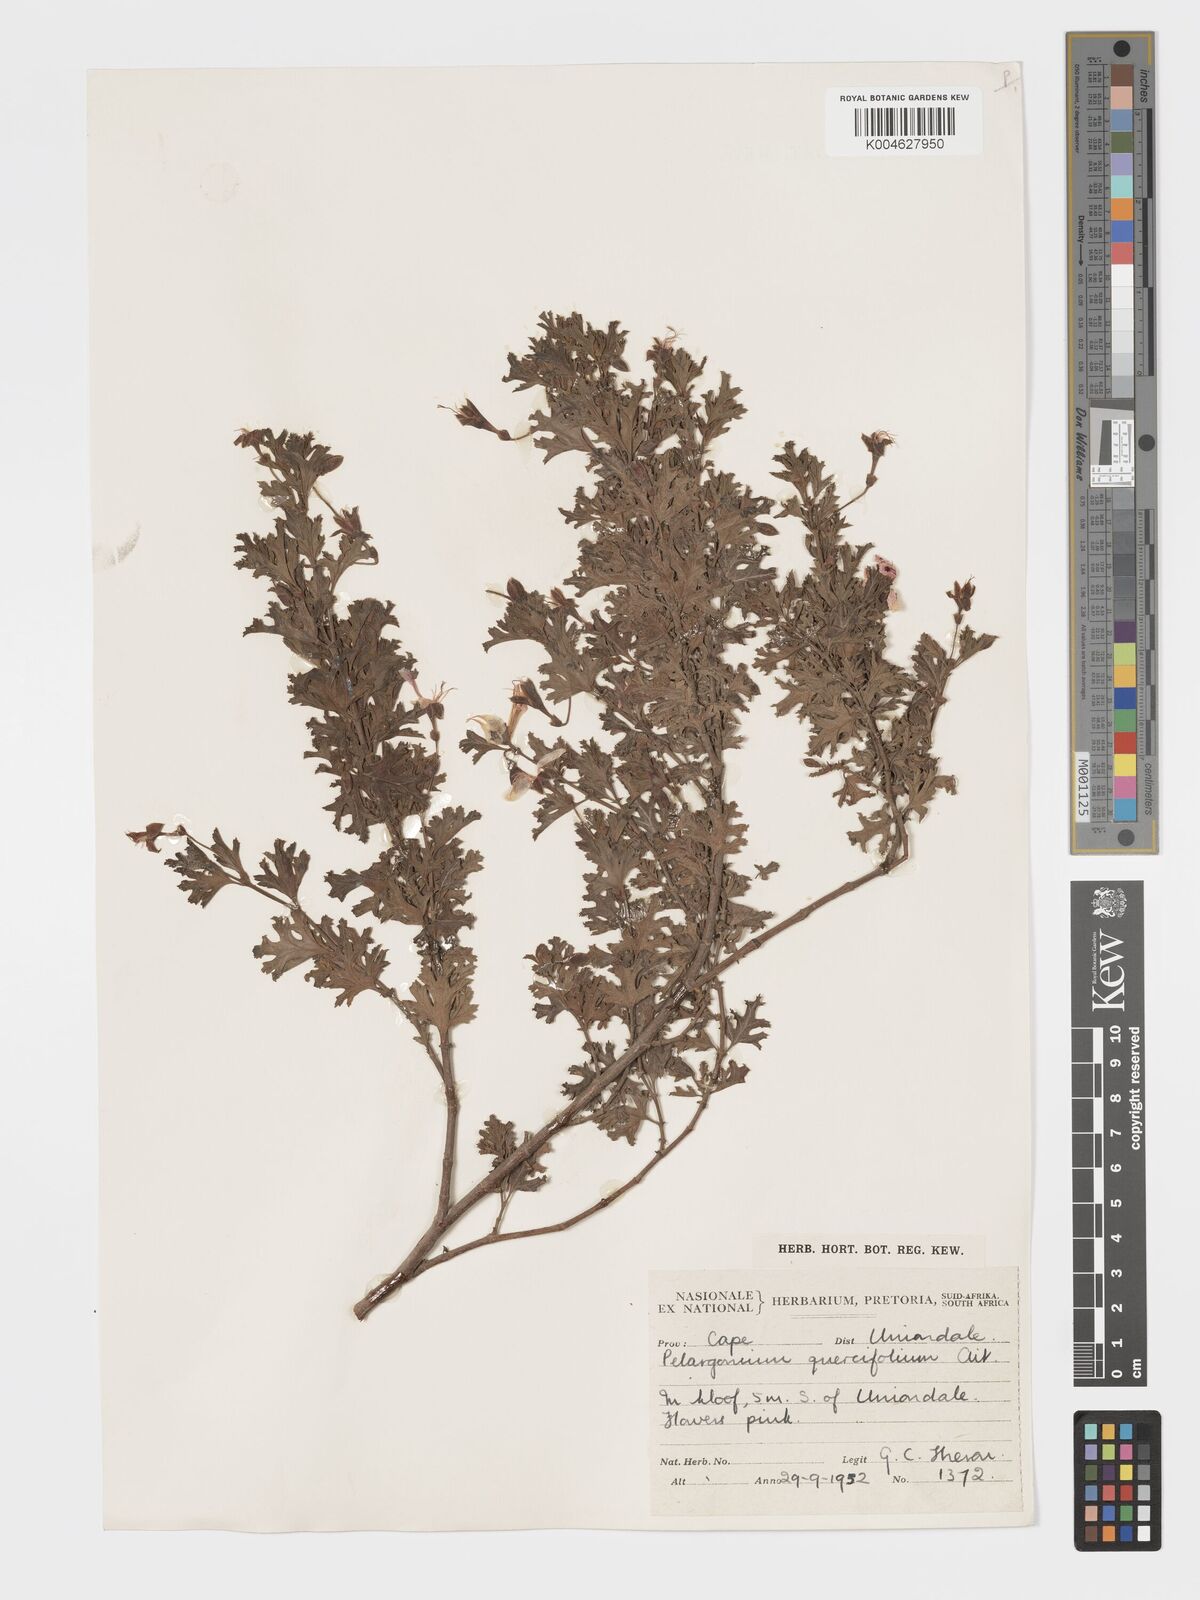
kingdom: Plantae
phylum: Tracheophyta
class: Magnoliopsida
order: Geraniales
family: Geraniaceae
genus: Pelargonium
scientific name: Pelargonium quercifolium
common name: Oakleaf geranium
